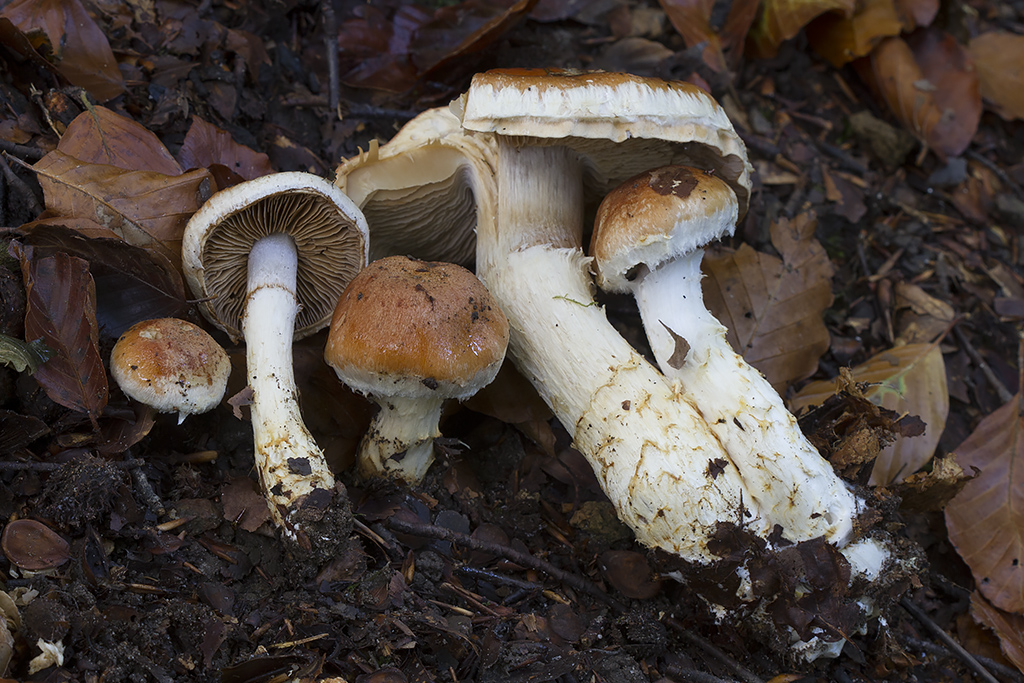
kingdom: Fungi
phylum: Basidiomycota
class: Agaricomycetes
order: Agaricales
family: Cortinariaceae
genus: Phlegmacium
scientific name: Phlegmacium vulpinum
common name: ringbæltet slørhat
